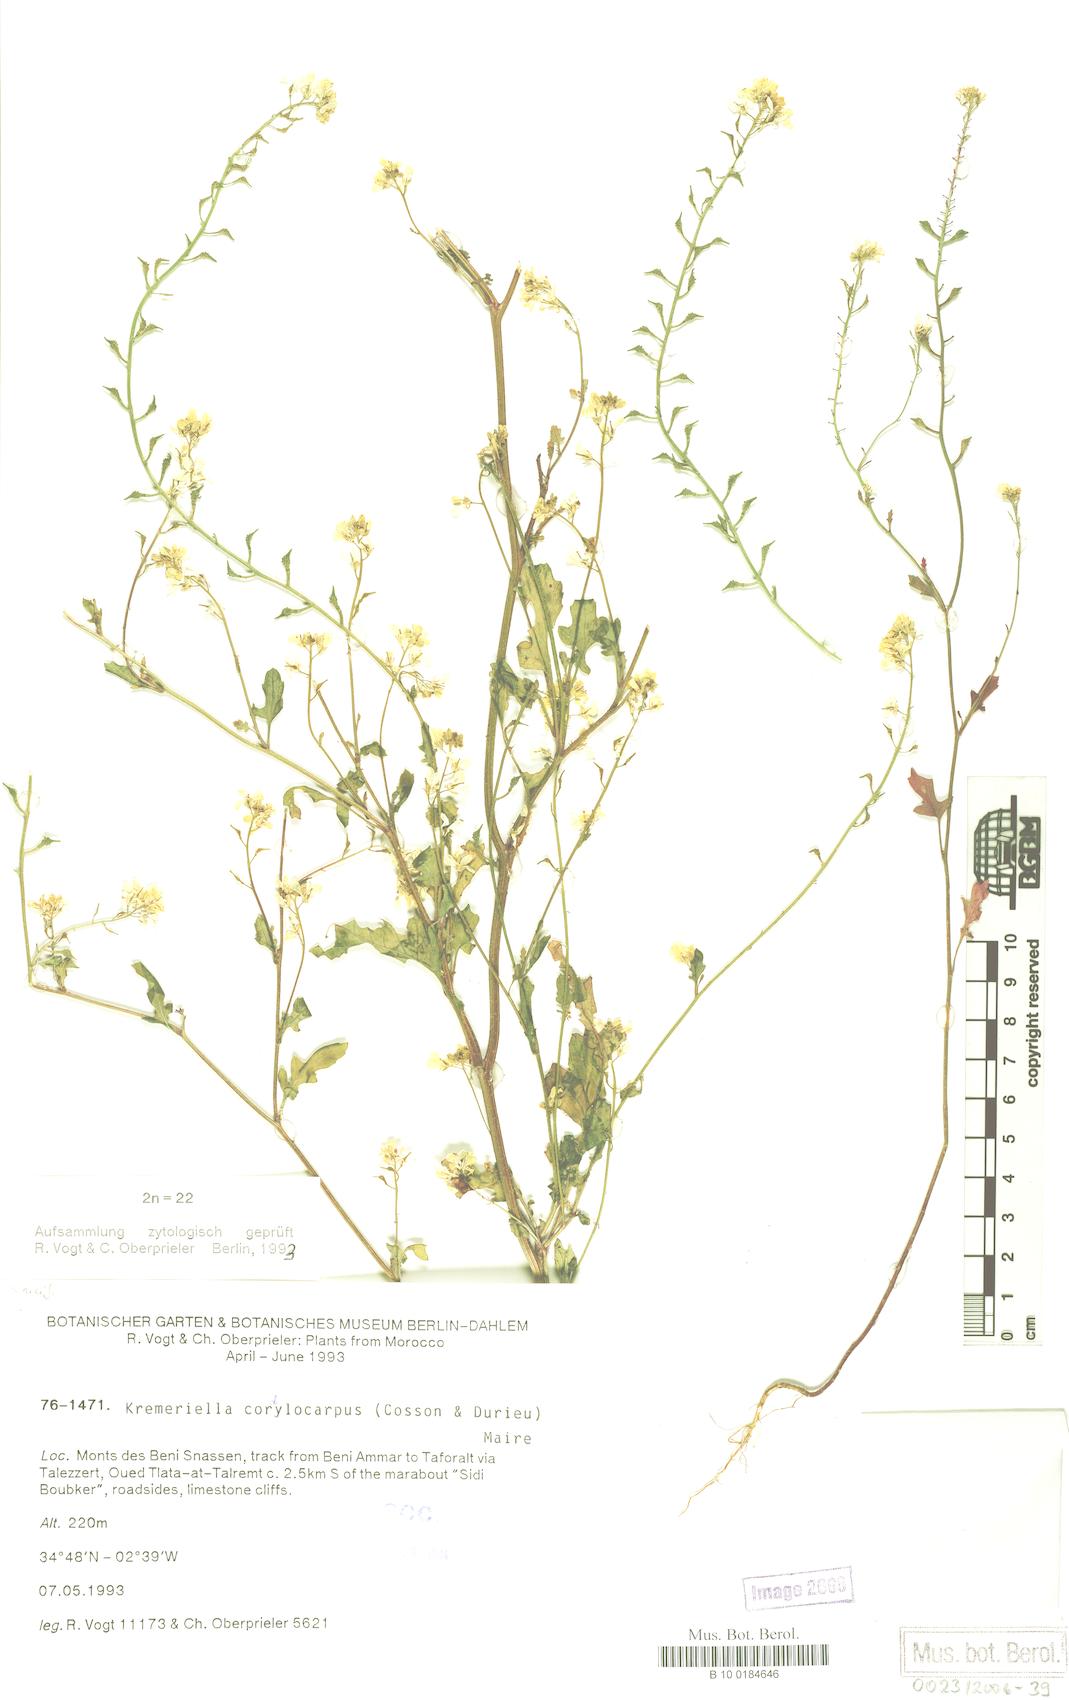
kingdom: Plantae
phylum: Tracheophyta
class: Magnoliopsida
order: Brassicales
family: Brassicaceae
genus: Kremeriella
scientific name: Kremeriella cordylocarpus
